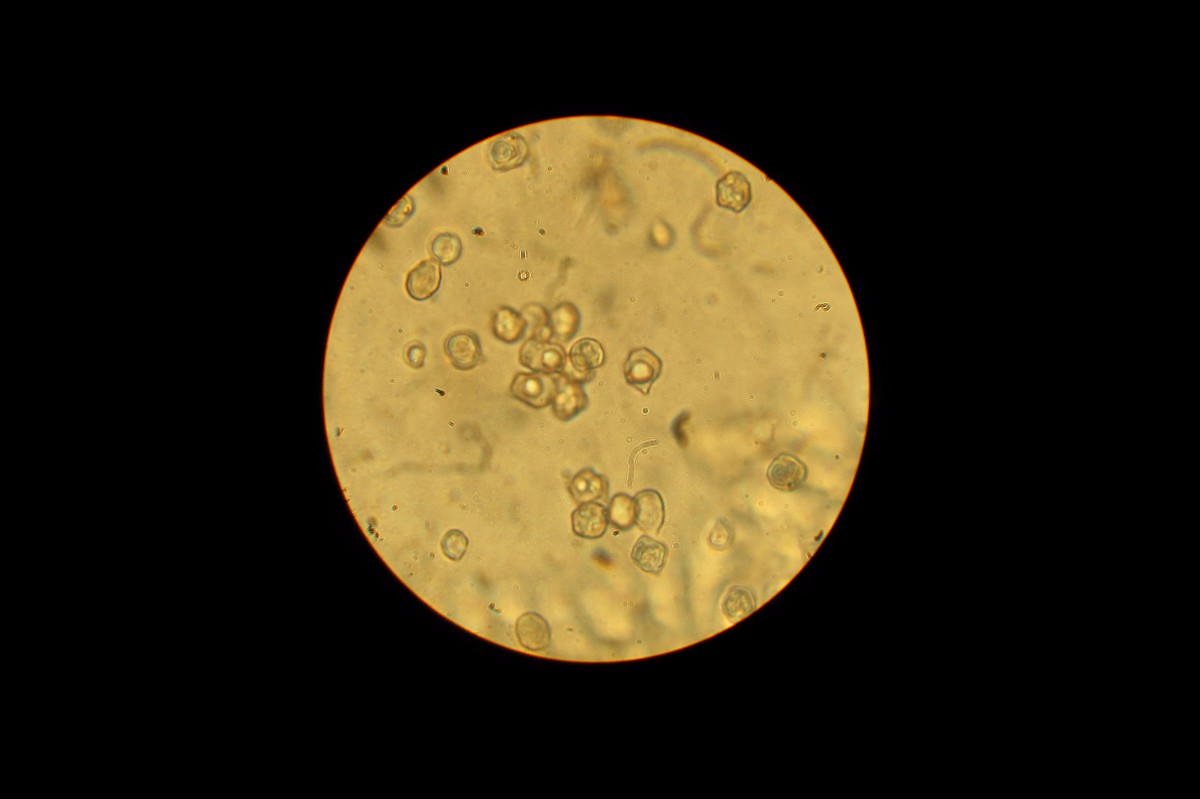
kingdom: Fungi
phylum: Basidiomycota
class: Agaricomycetes
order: Agaricales
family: Entolomataceae
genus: Entoloma
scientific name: Entoloma lividoalbum
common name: lysstokket rødblad
